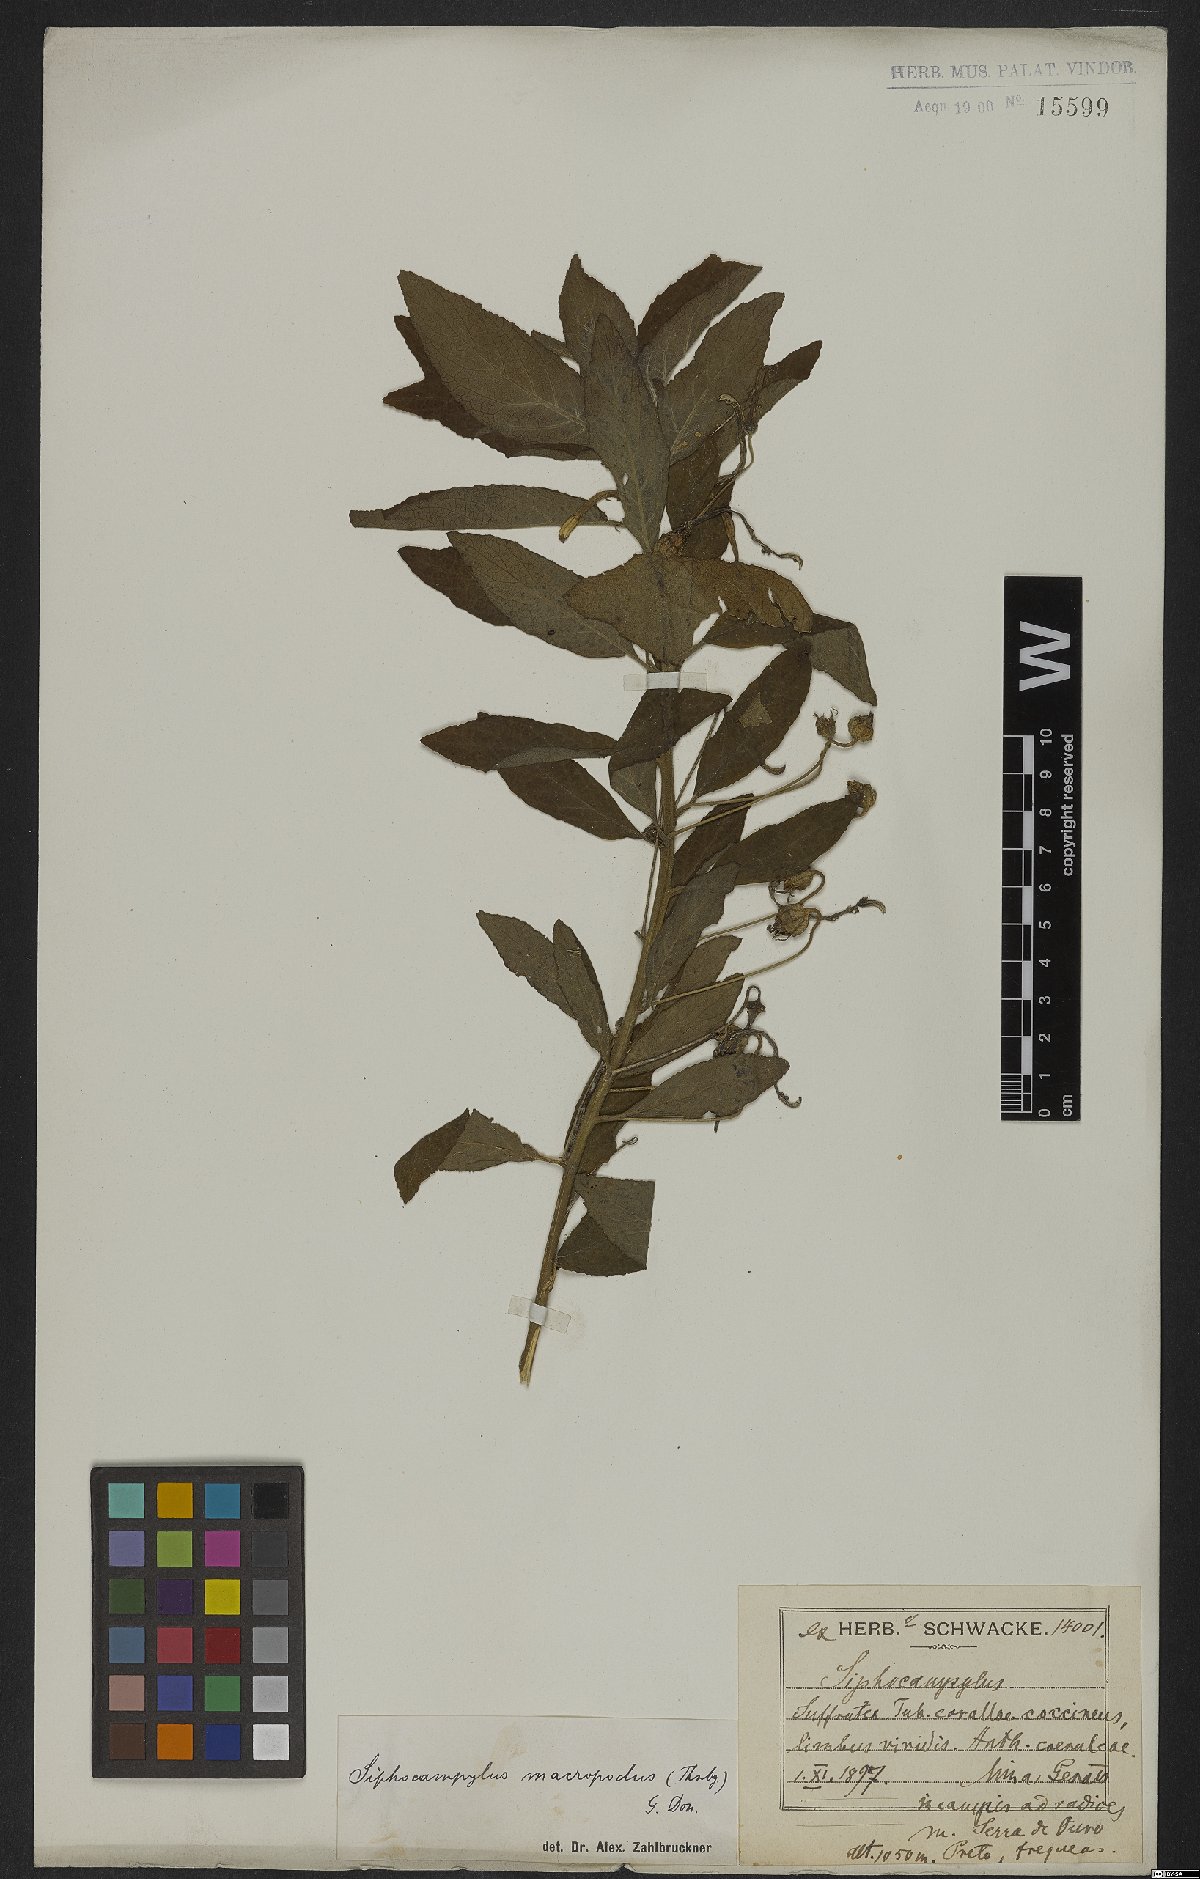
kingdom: Plantae
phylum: Tracheophyta
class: Magnoliopsida
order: Asterales
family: Campanulaceae
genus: Siphocampylus
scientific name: Siphocampylus macropodus
